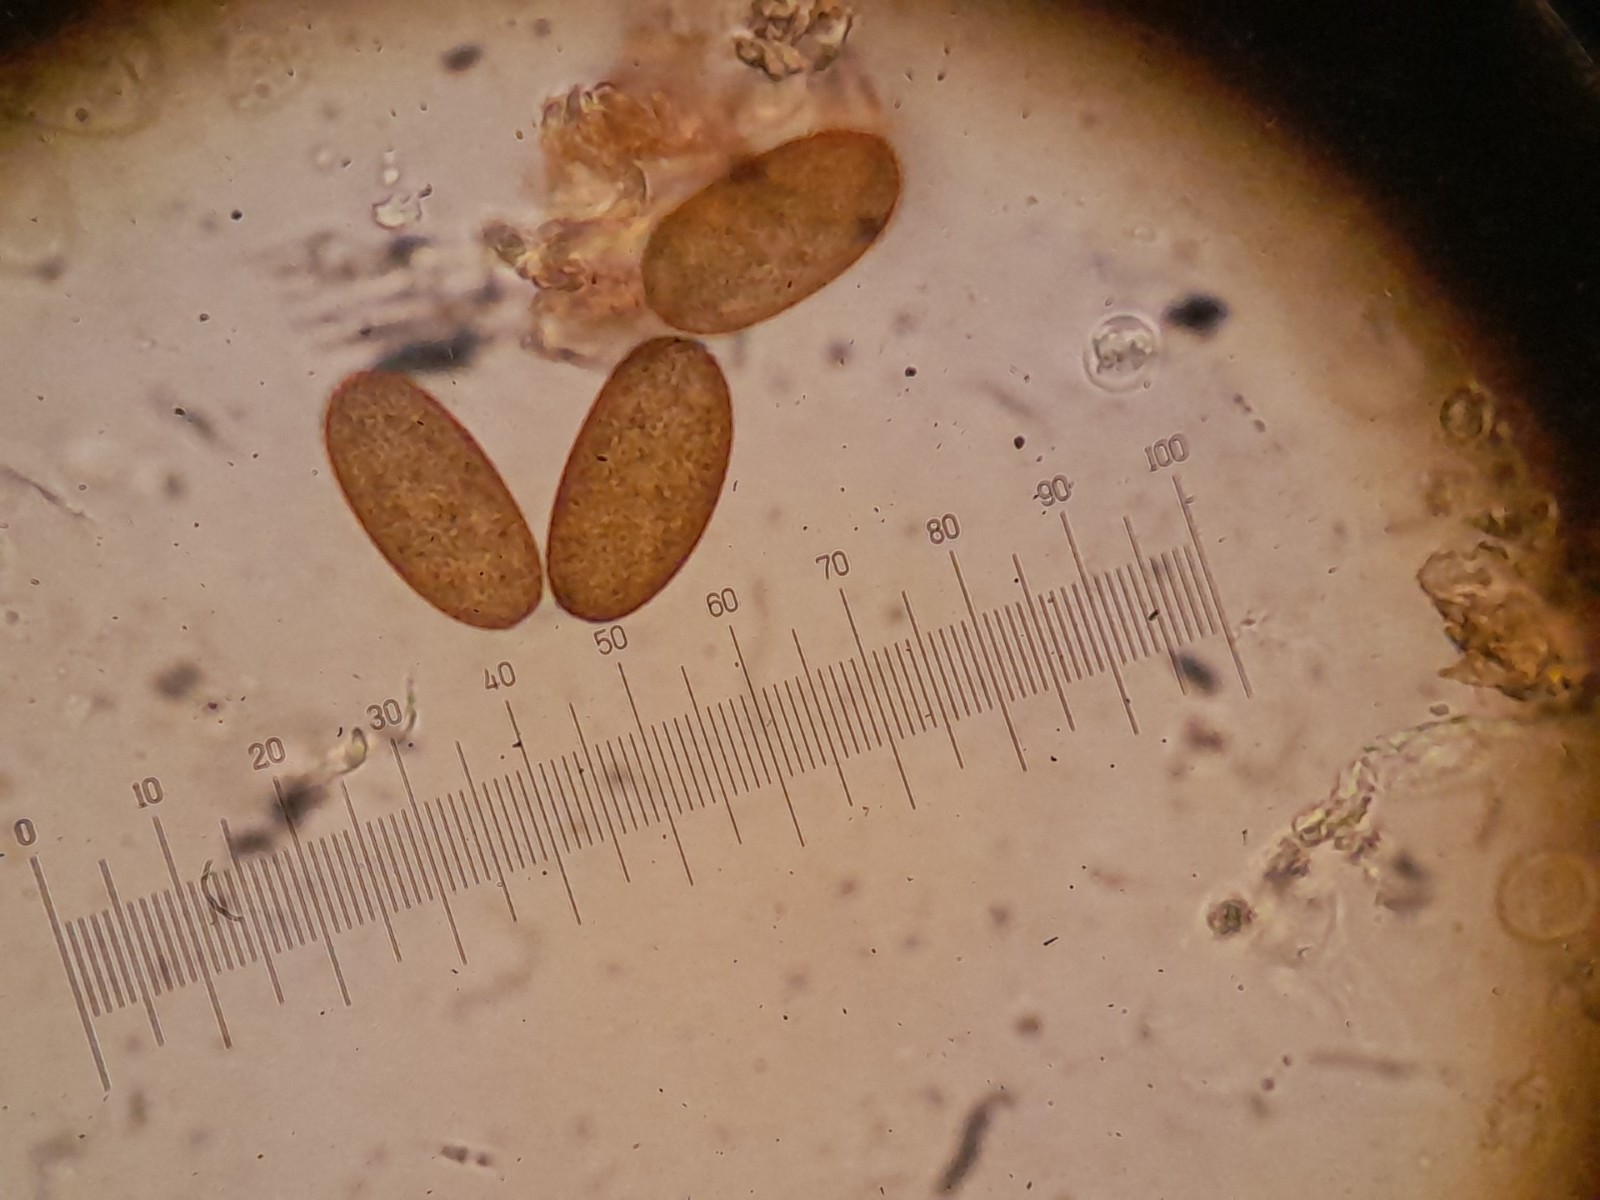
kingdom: Fungi
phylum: Ascomycota
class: Dothideomycetes
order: Botryosphaeriales
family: Botryosphaeriaceae
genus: Sphaeropsis
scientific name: Sphaeropsis sapinea
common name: Sphaeropsis blight
